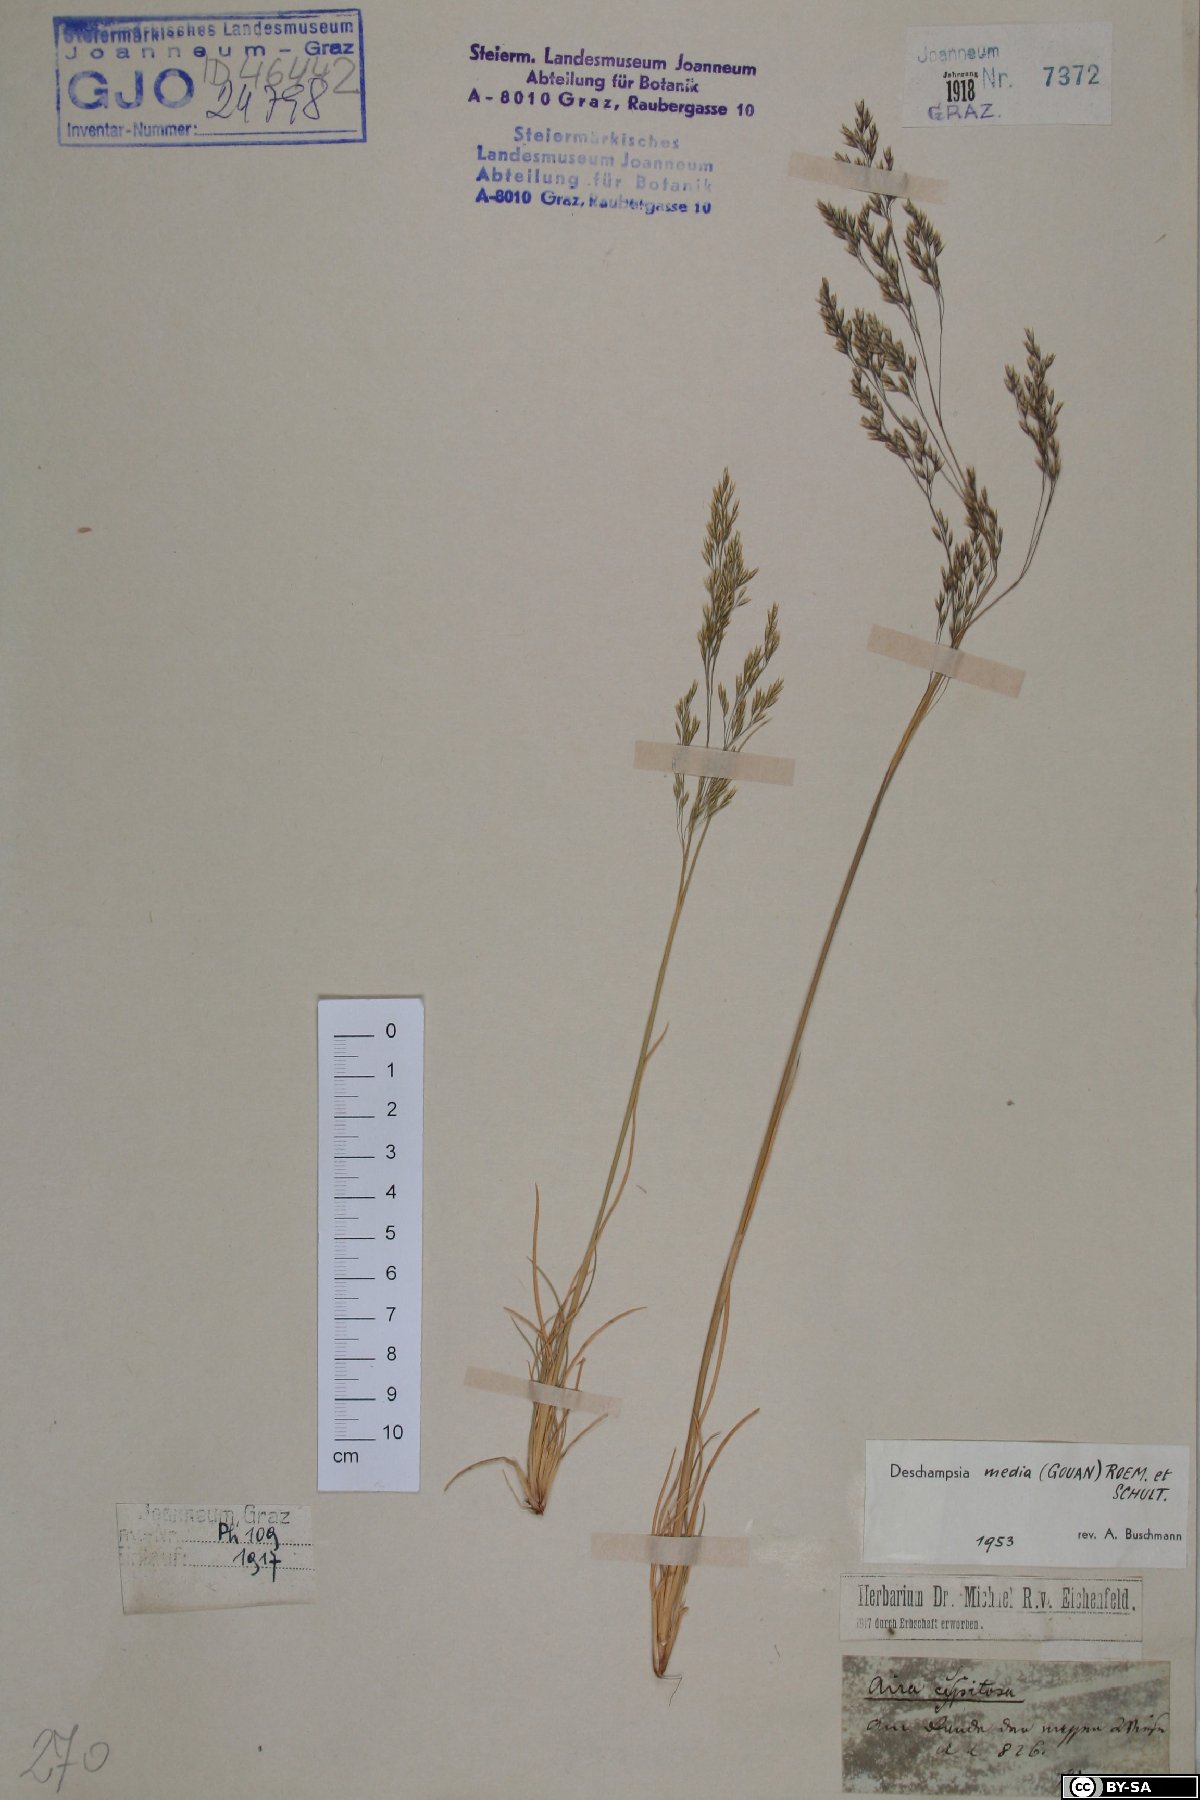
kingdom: Plantae
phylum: Tracheophyta
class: Liliopsida
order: Poales
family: Poaceae
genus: Deschampsia
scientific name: Deschampsia media
